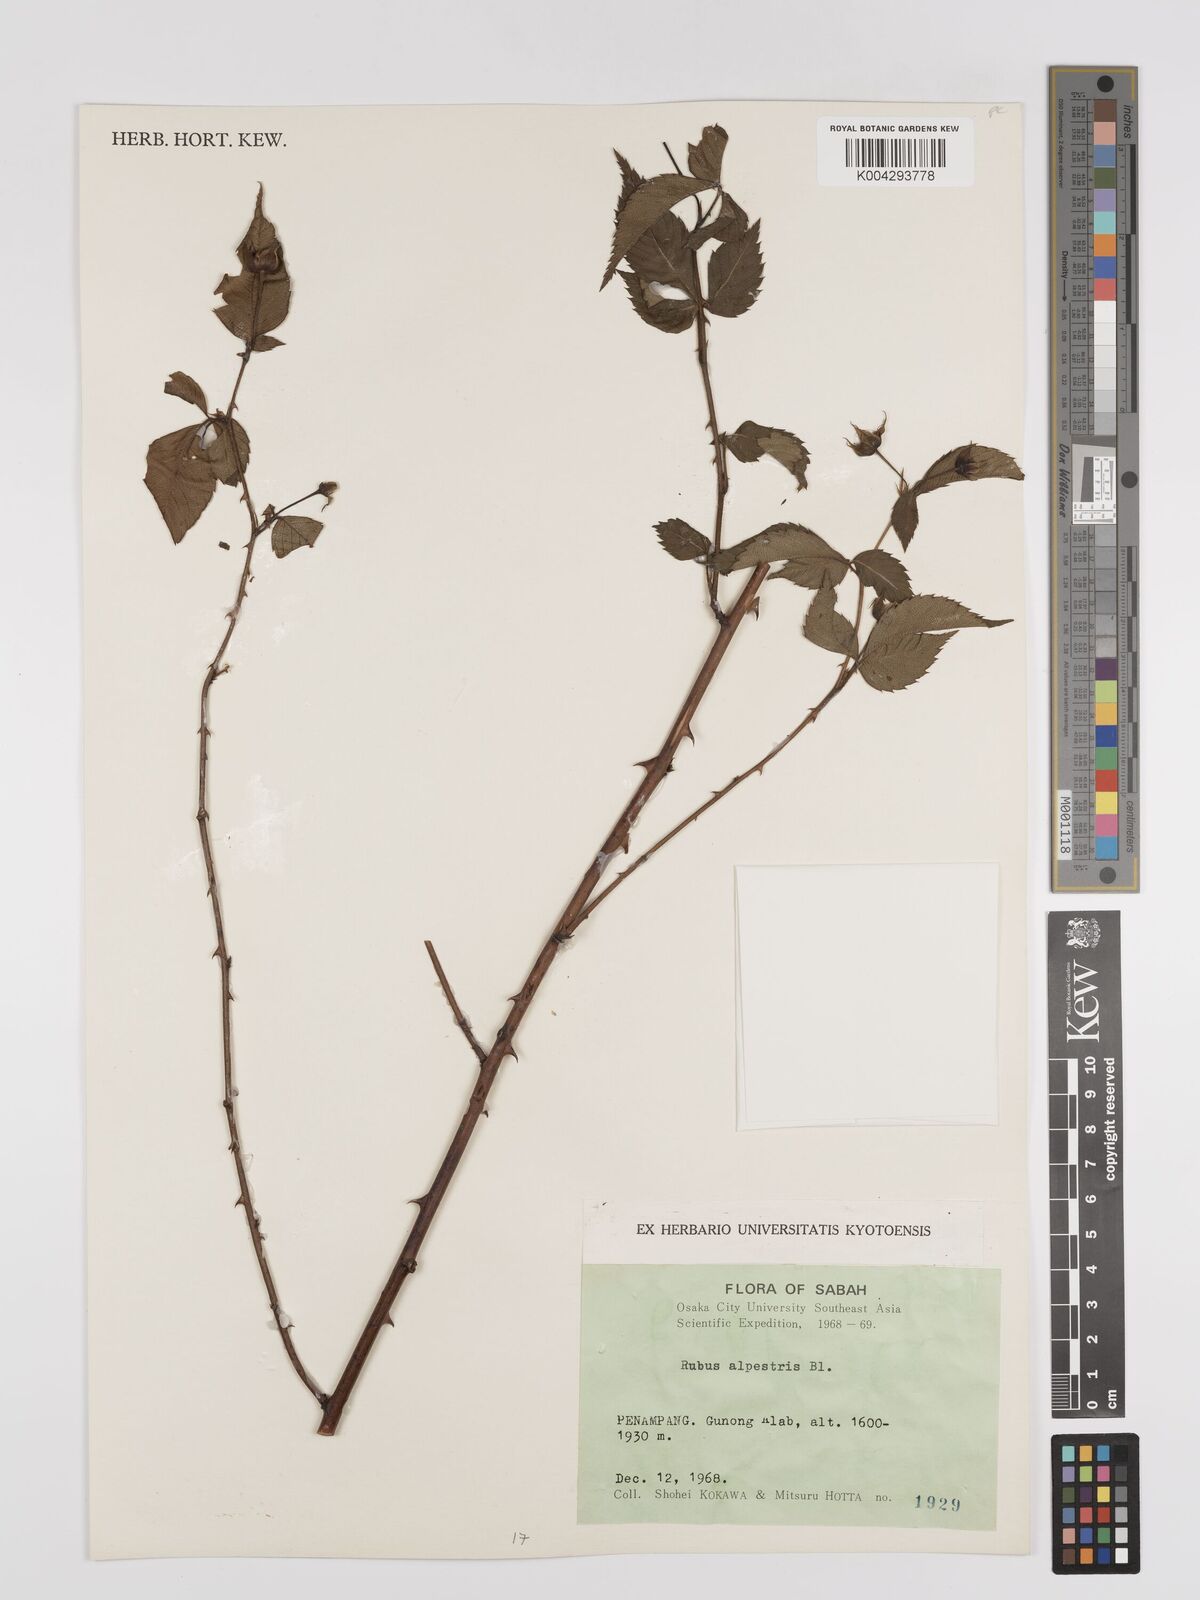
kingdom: Plantae
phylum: Tracheophyta
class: Magnoliopsida
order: Rosales
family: Rosaceae
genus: Rubus
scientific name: Rubus alpestris
